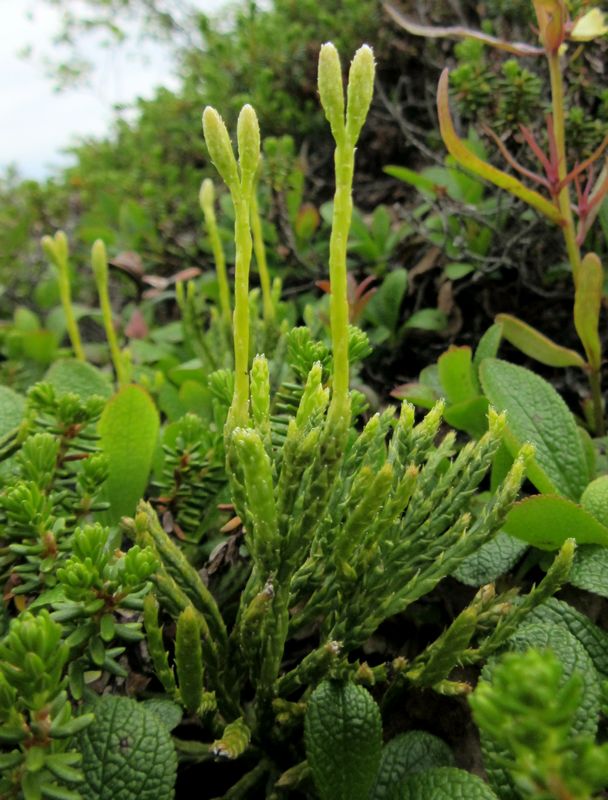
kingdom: Plantae
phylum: Tracheophyta
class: Lycopodiopsida
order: Lycopodiales
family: Lycopodiaceae
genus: Diphasiastrum
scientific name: Diphasiastrum alpinum
